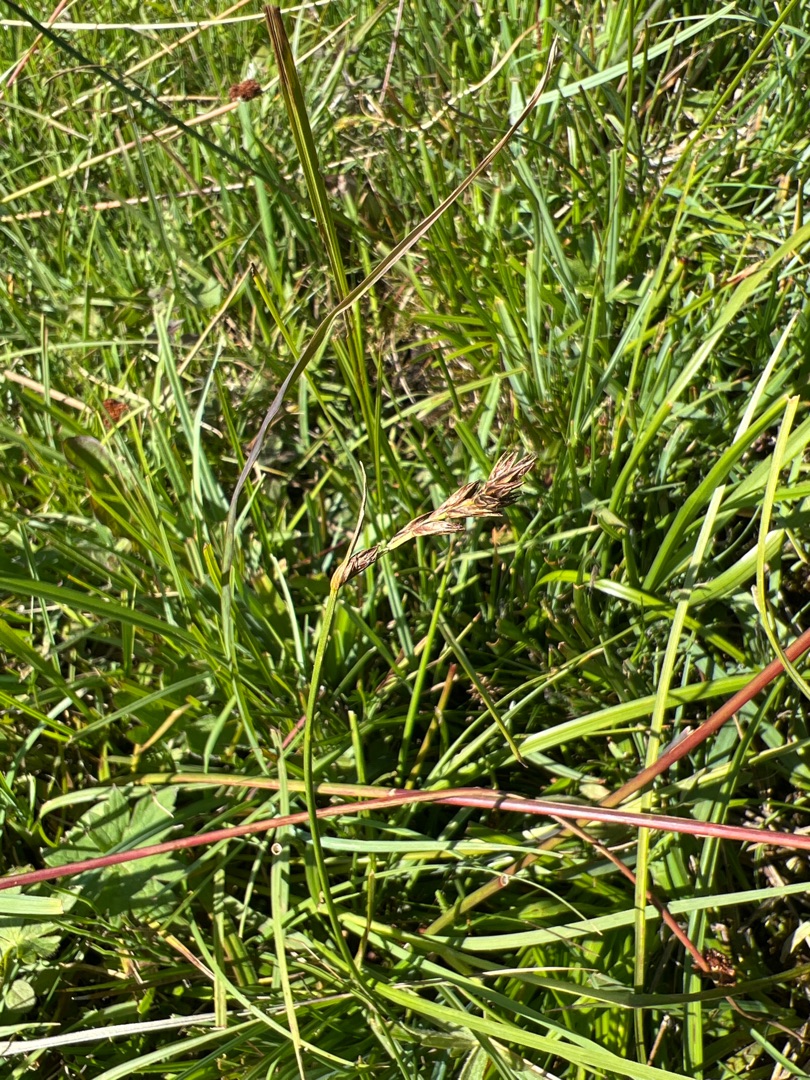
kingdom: Plantae
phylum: Tracheophyta
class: Liliopsida
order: Poales
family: Cyperaceae
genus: Blysmus
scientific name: Blysmus compressus
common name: Fladtrykt kogleaks
